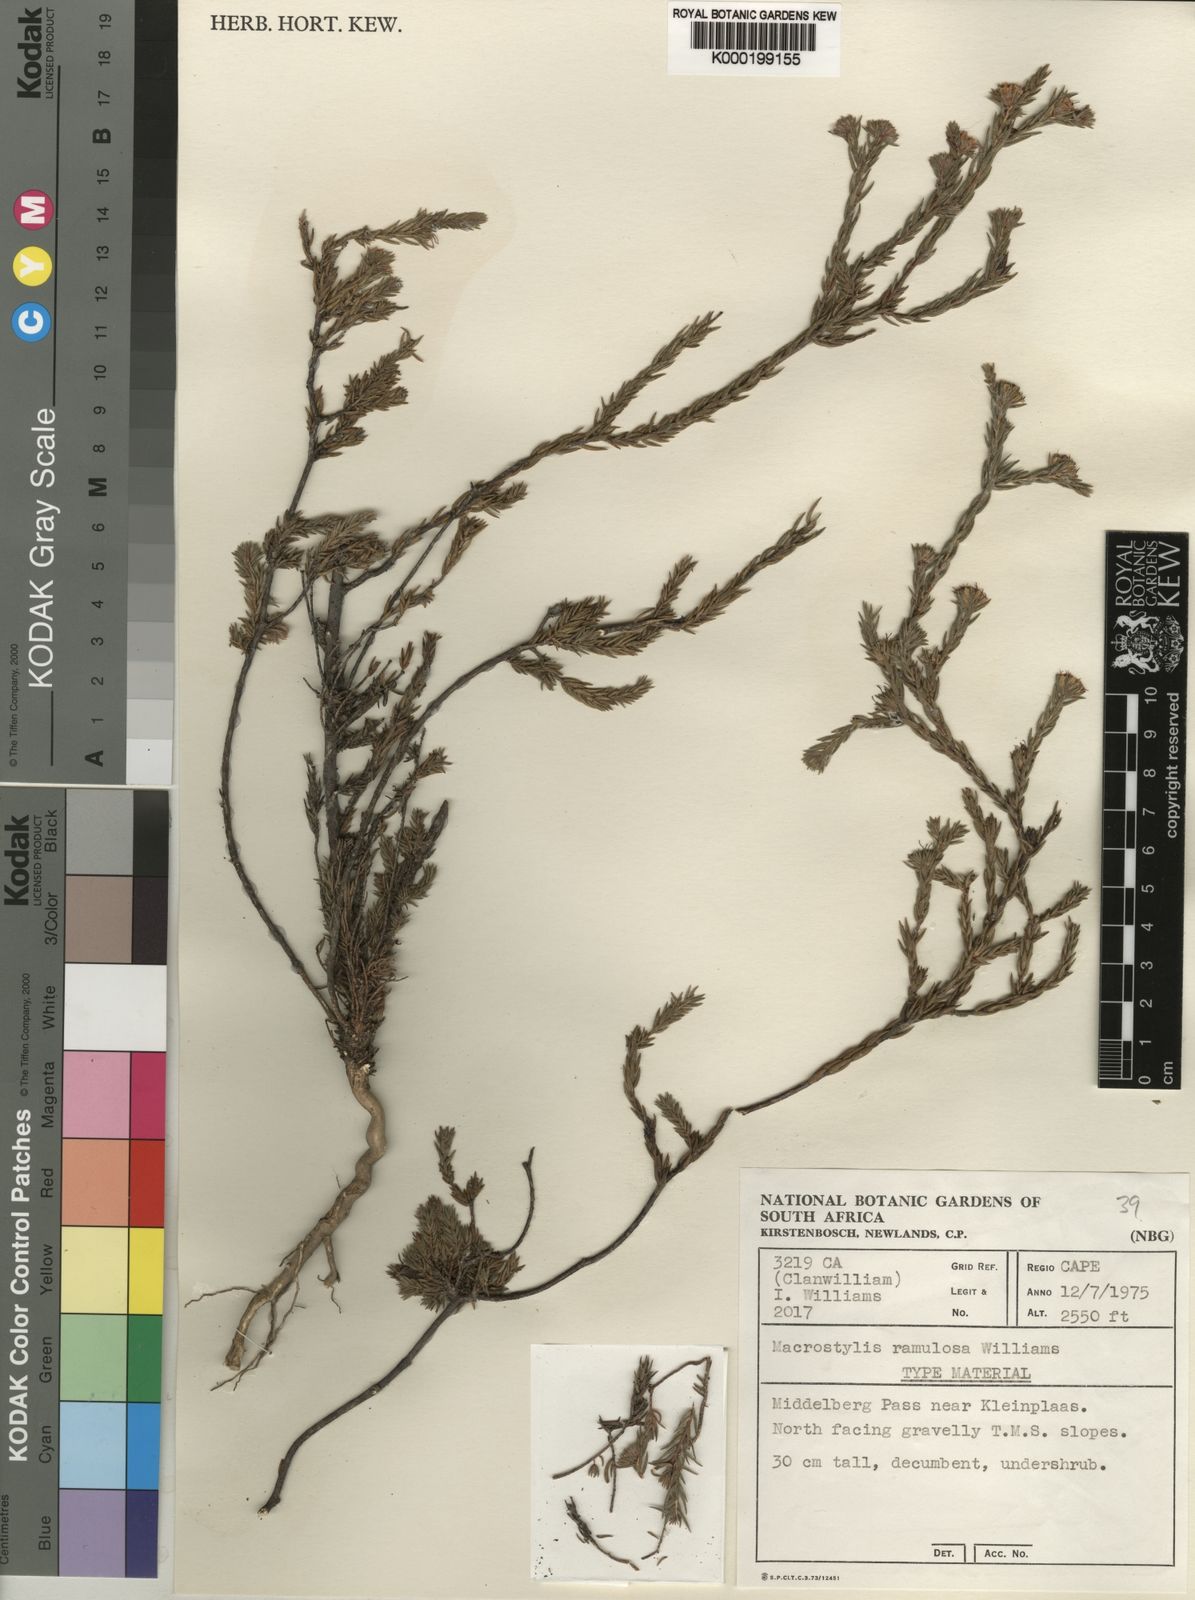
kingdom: Plantae
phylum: Tracheophyta
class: Magnoliopsida
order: Sapindales
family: Rutaceae
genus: Macrostylis
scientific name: Macrostylis ramulosa
